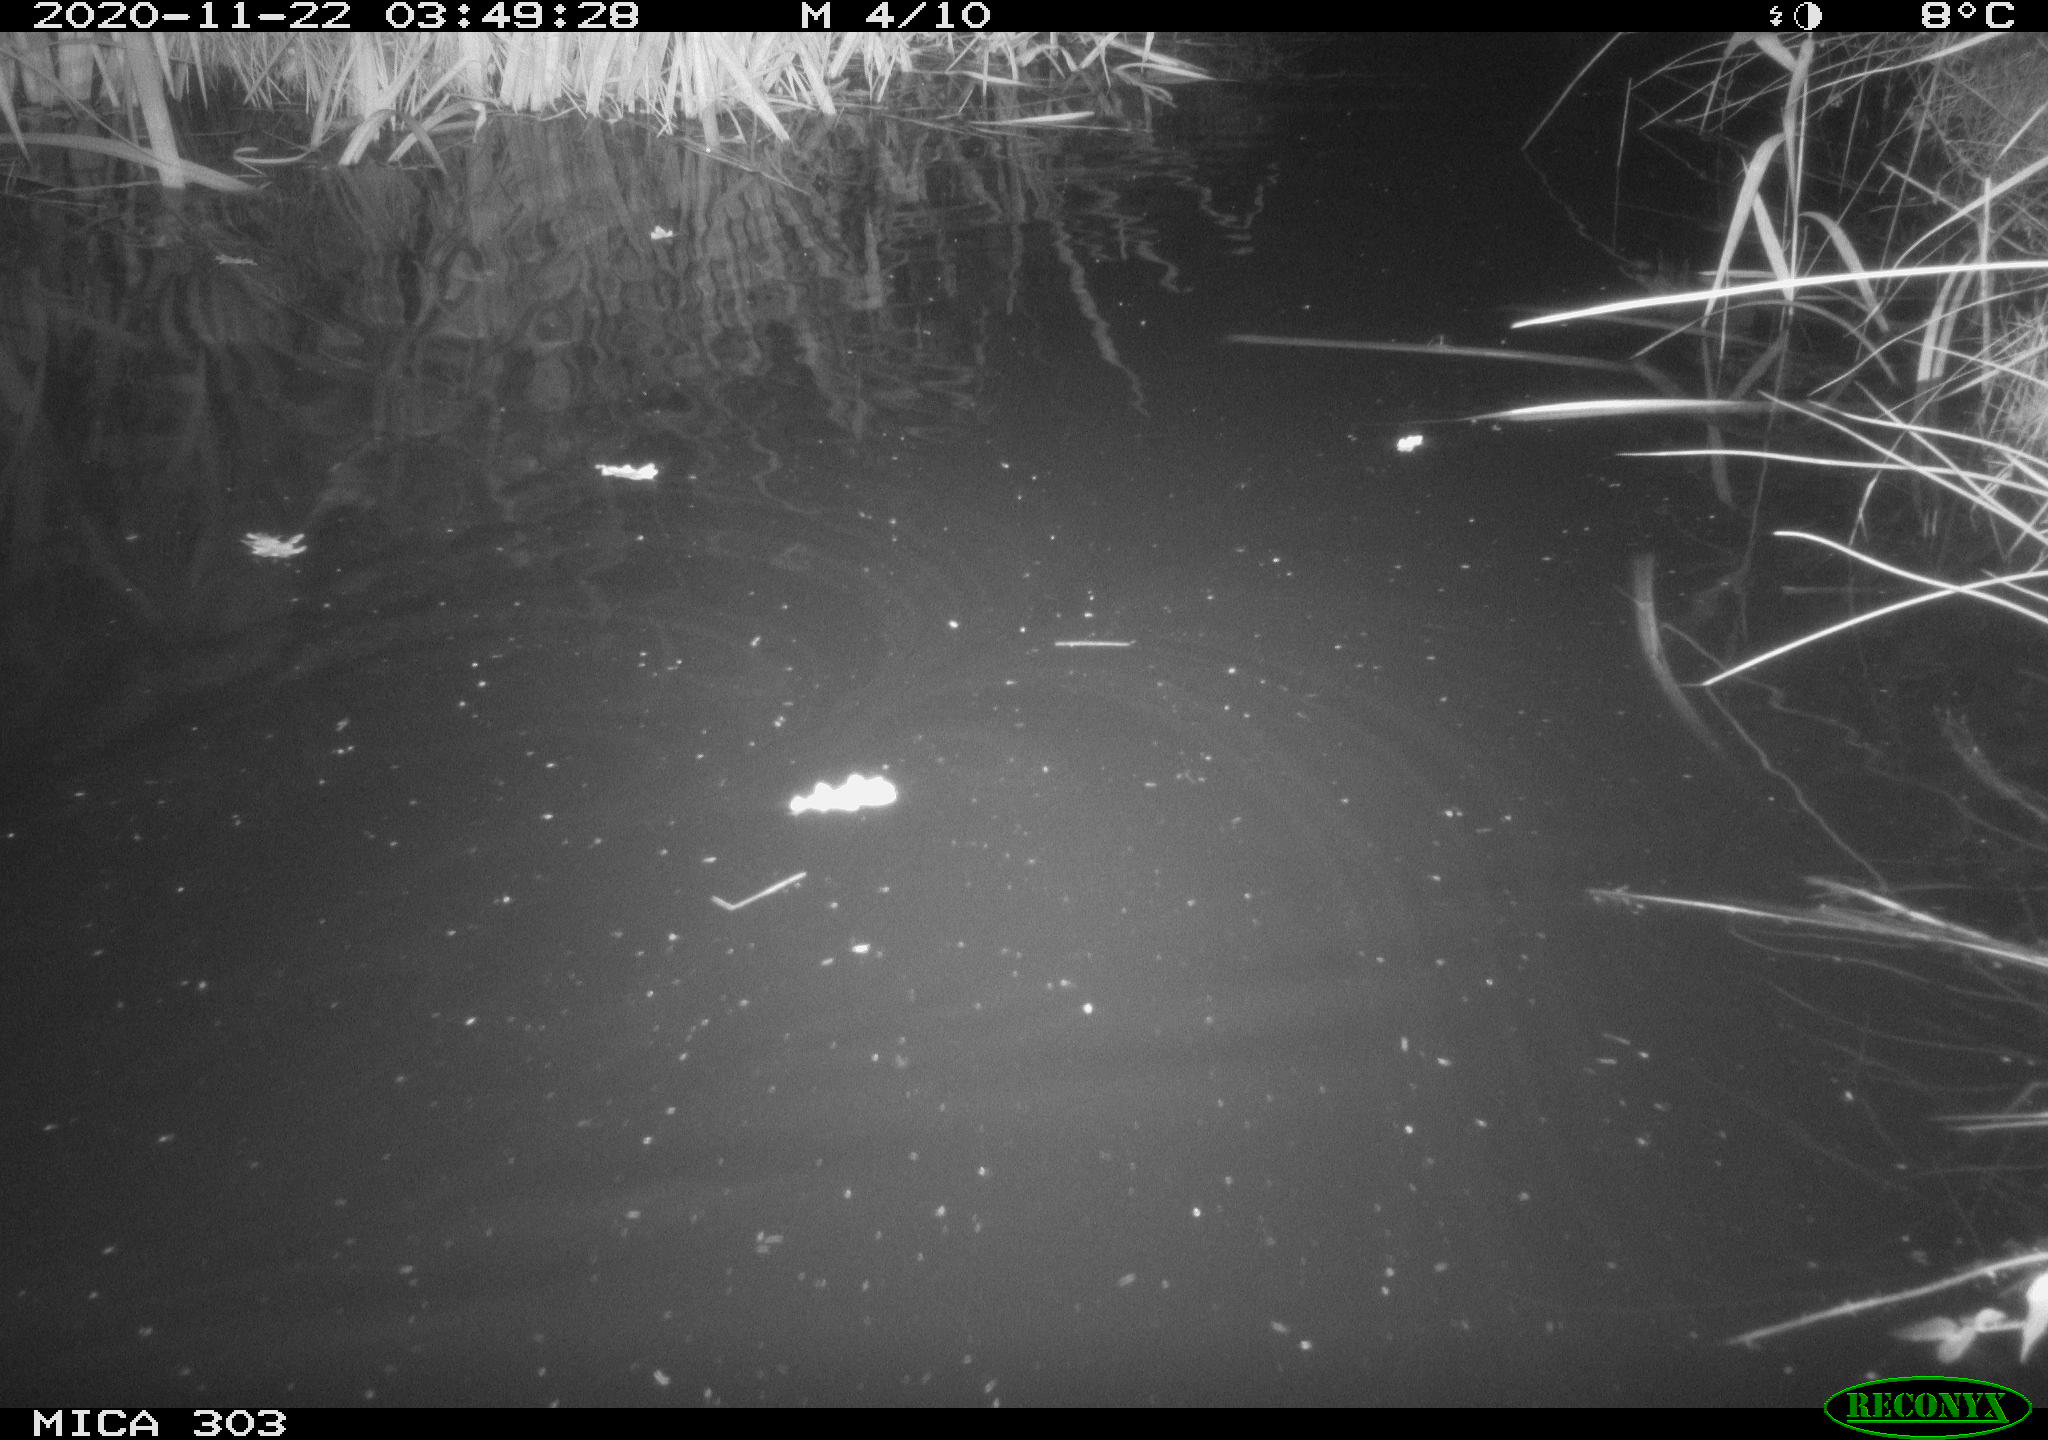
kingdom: Animalia
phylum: Chordata
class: Mammalia
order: Rodentia
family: Muridae
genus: Rattus
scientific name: Rattus norvegicus
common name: Brown rat
